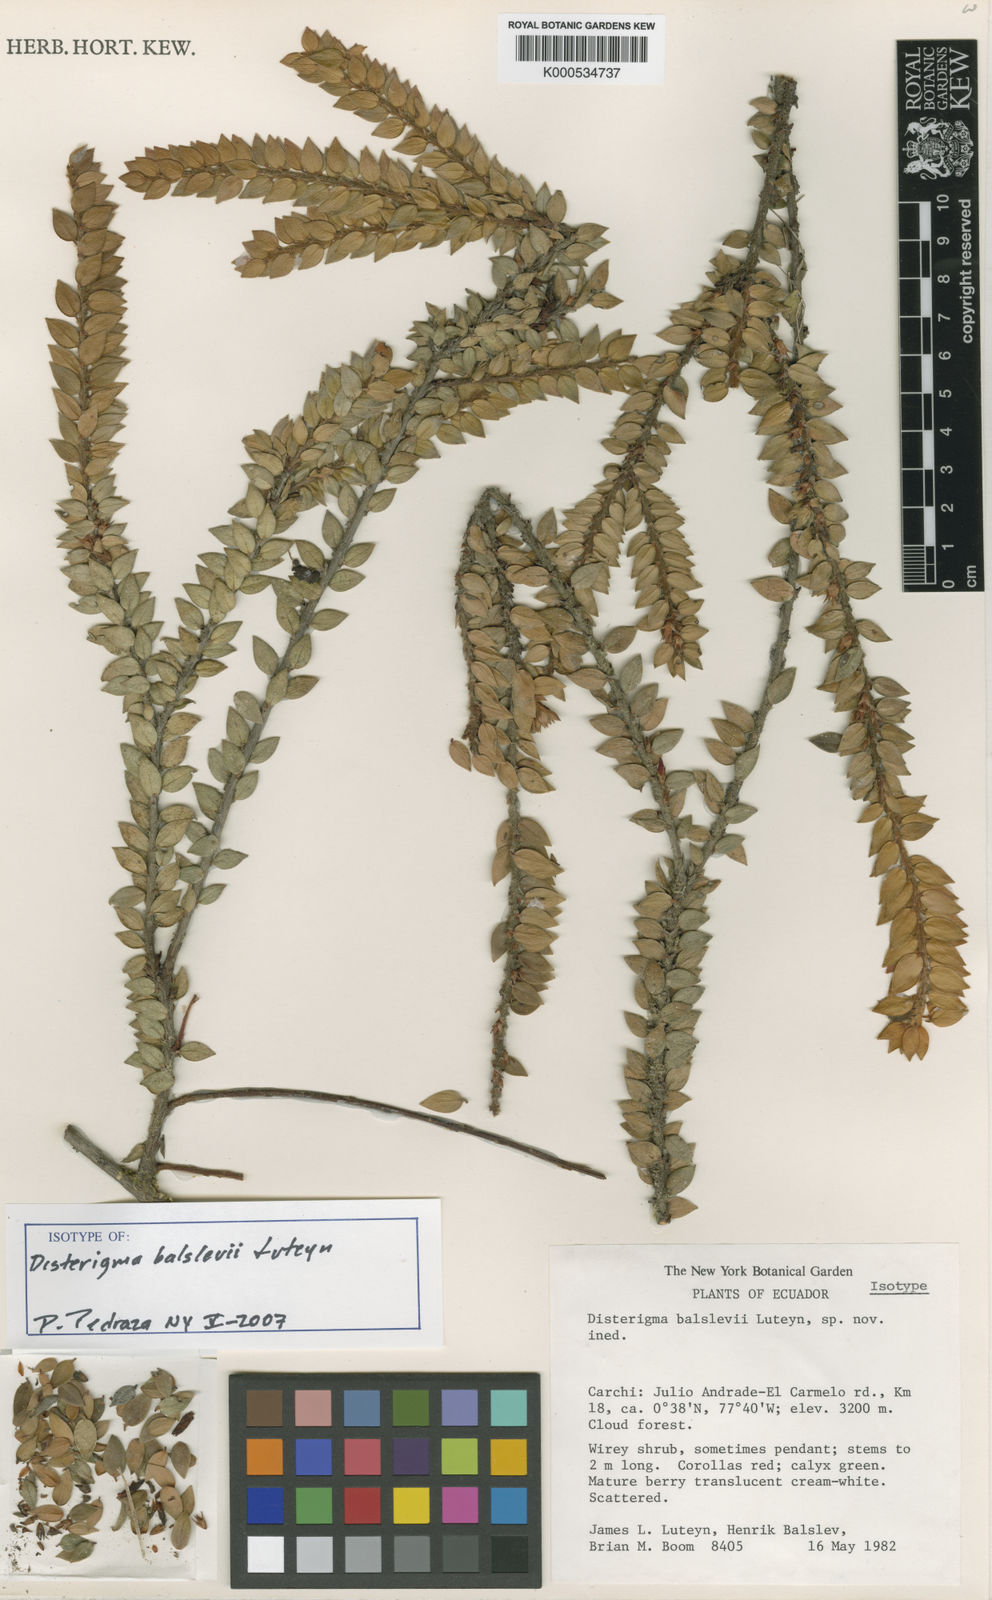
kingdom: Plantae
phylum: Tracheophyta
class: Magnoliopsida
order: Ericales
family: Ericaceae
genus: Disterigma
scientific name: Disterigma balslevii
